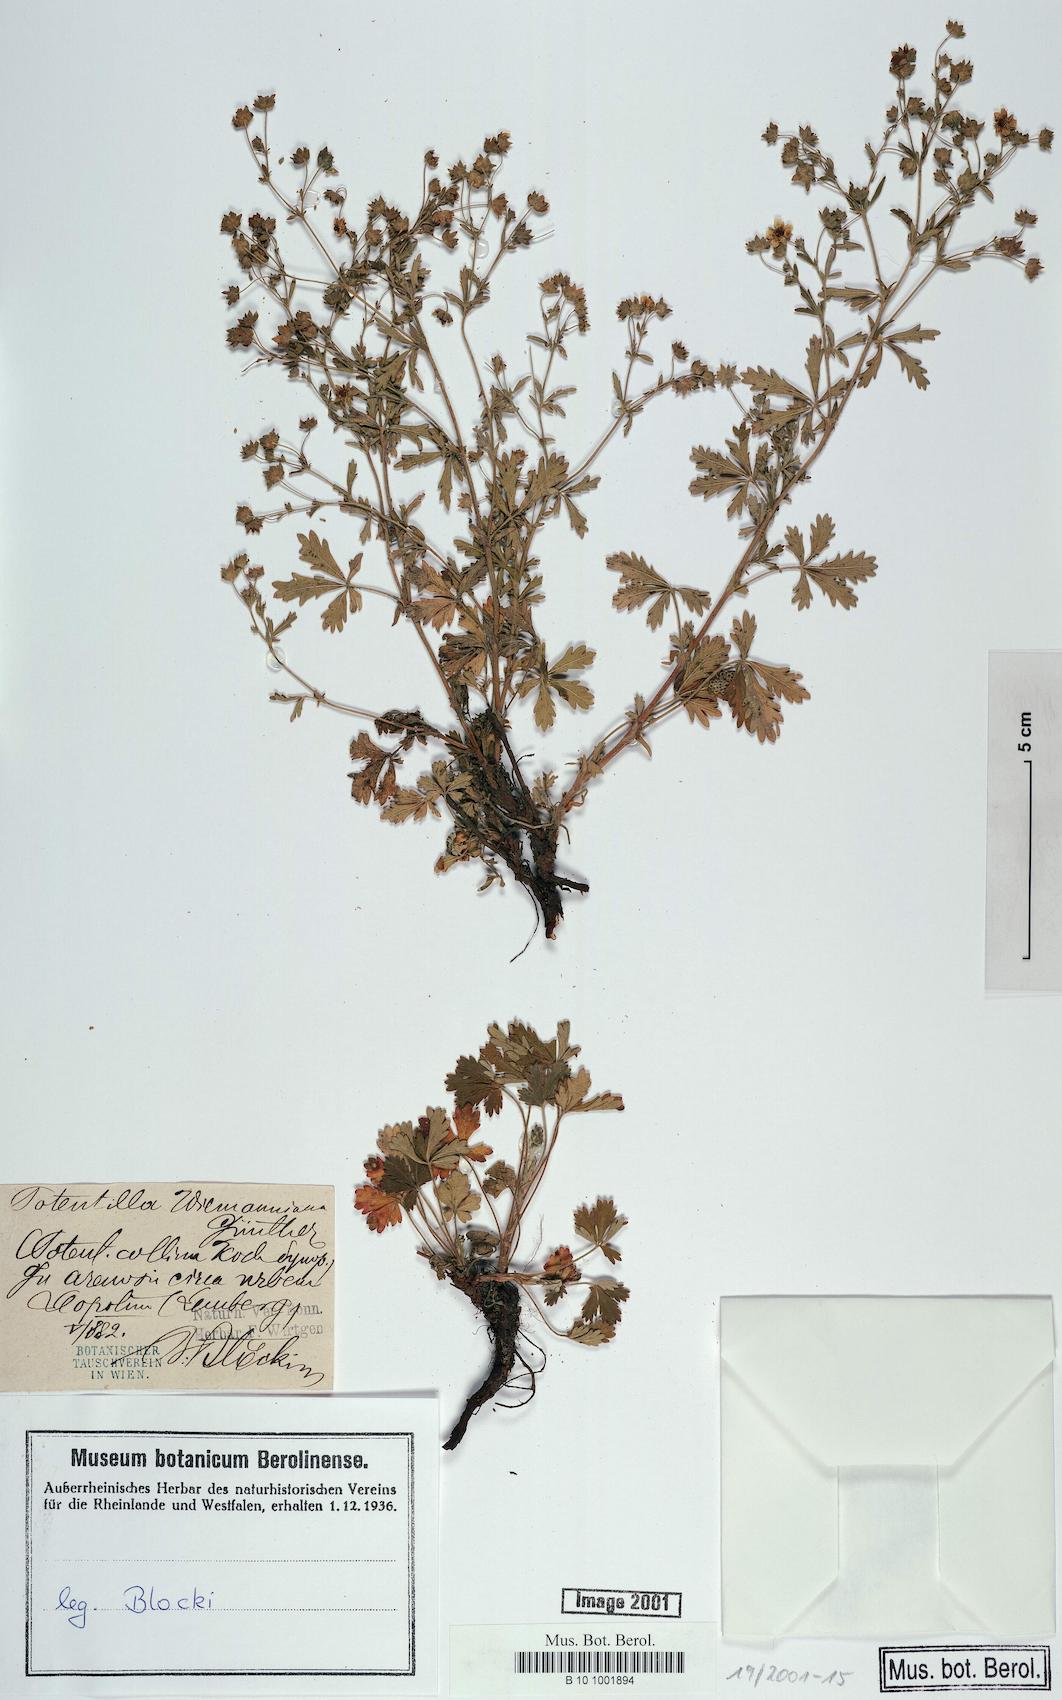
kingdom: Plantae
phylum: Tracheophyta
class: Magnoliopsida
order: Rosales
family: Rosaceae
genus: Potentilla
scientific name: Potentilla
